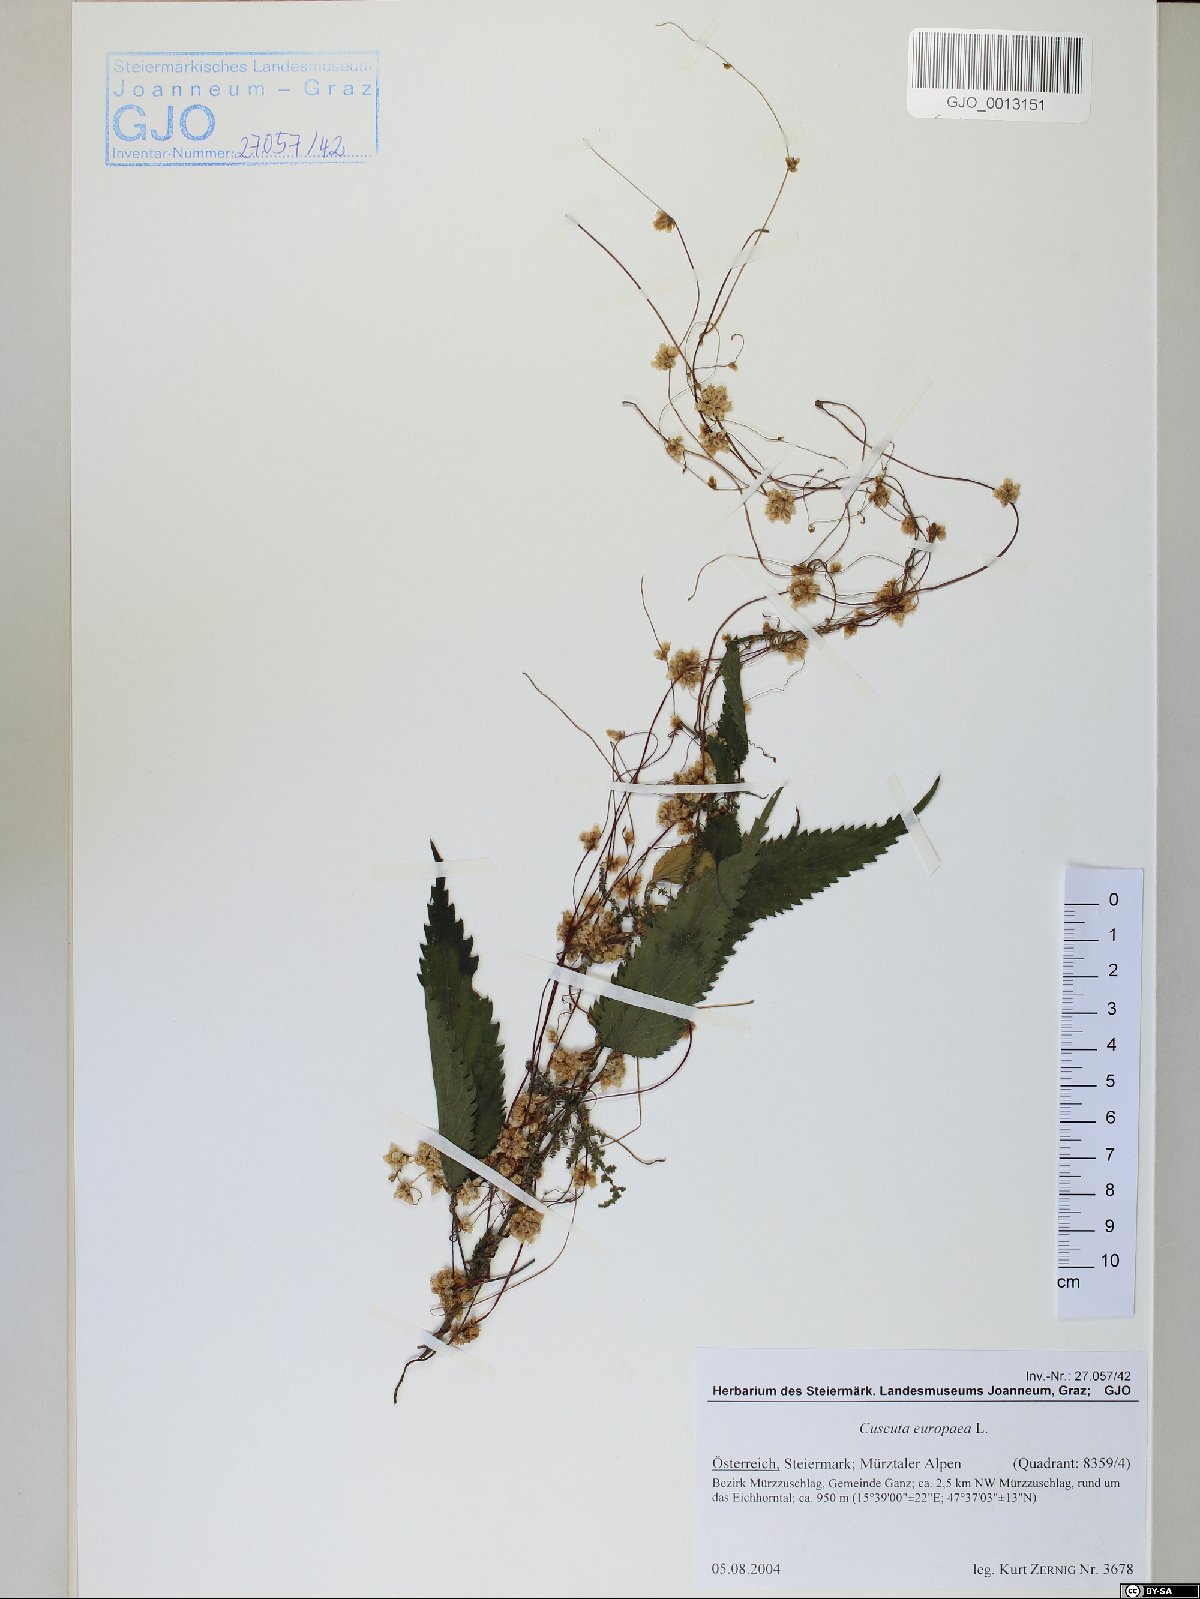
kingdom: Plantae
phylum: Tracheophyta
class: Magnoliopsida
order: Solanales
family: Convolvulaceae
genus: Cuscuta
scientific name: Cuscuta europaea
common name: Greater dodder
